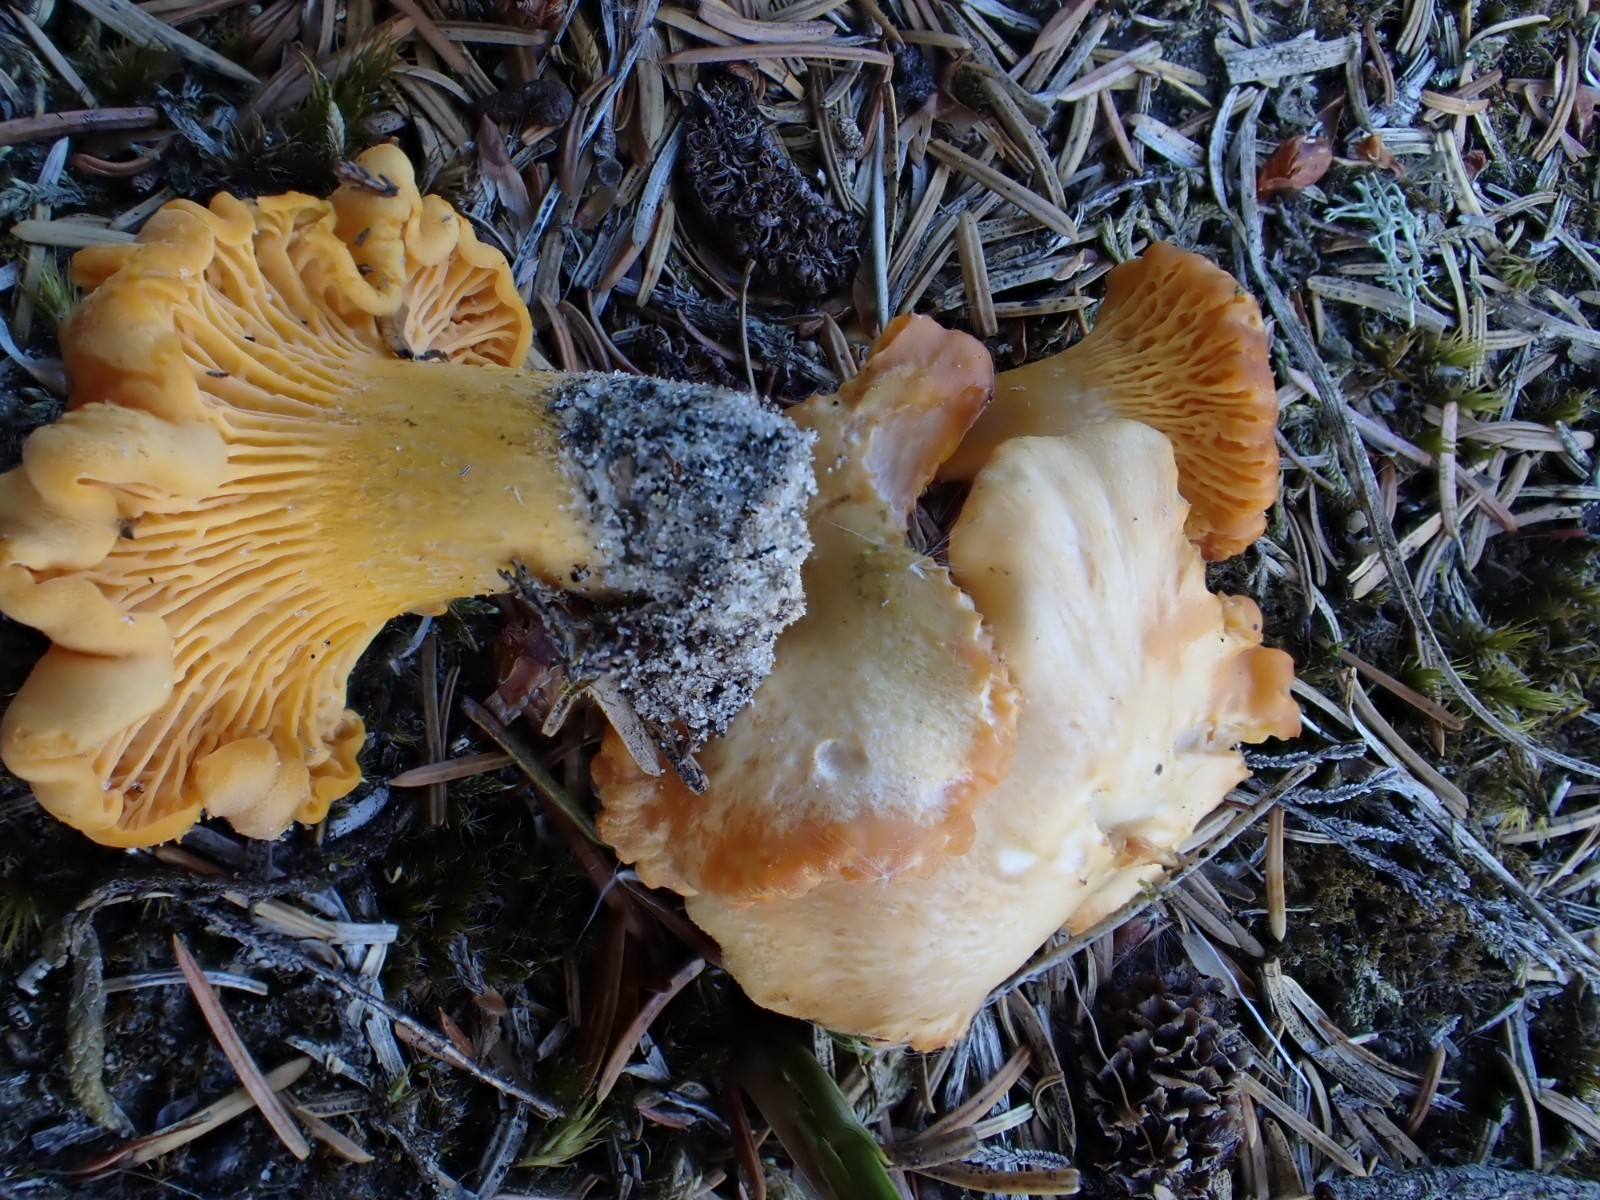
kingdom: Fungi
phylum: Basidiomycota
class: Agaricomycetes
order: Cantharellales
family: Hydnaceae
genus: Cantharellus
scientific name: Cantharellus cibarius
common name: almindelig kantarel
